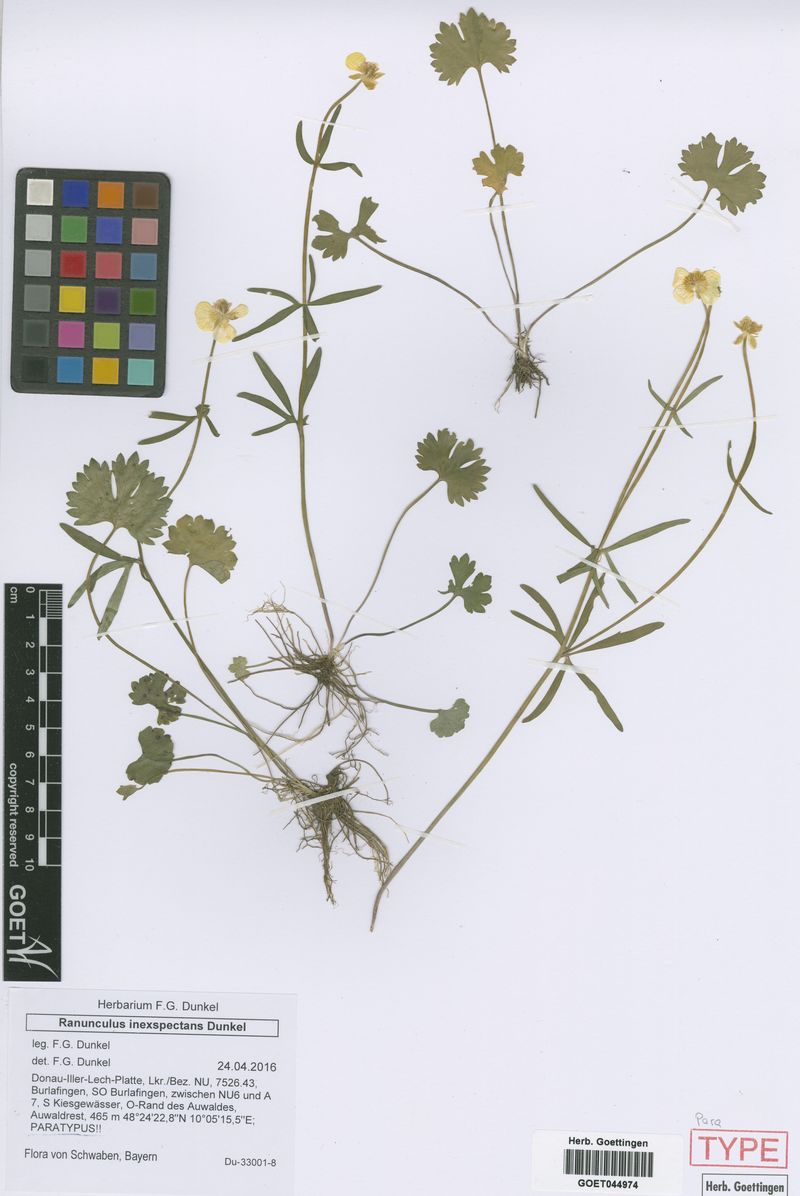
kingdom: Plantae
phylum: Tracheophyta
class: Magnoliopsida
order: Ranunculales
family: Ranunculaceae
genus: Ranunculus
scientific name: Ranunculus inexspectans
